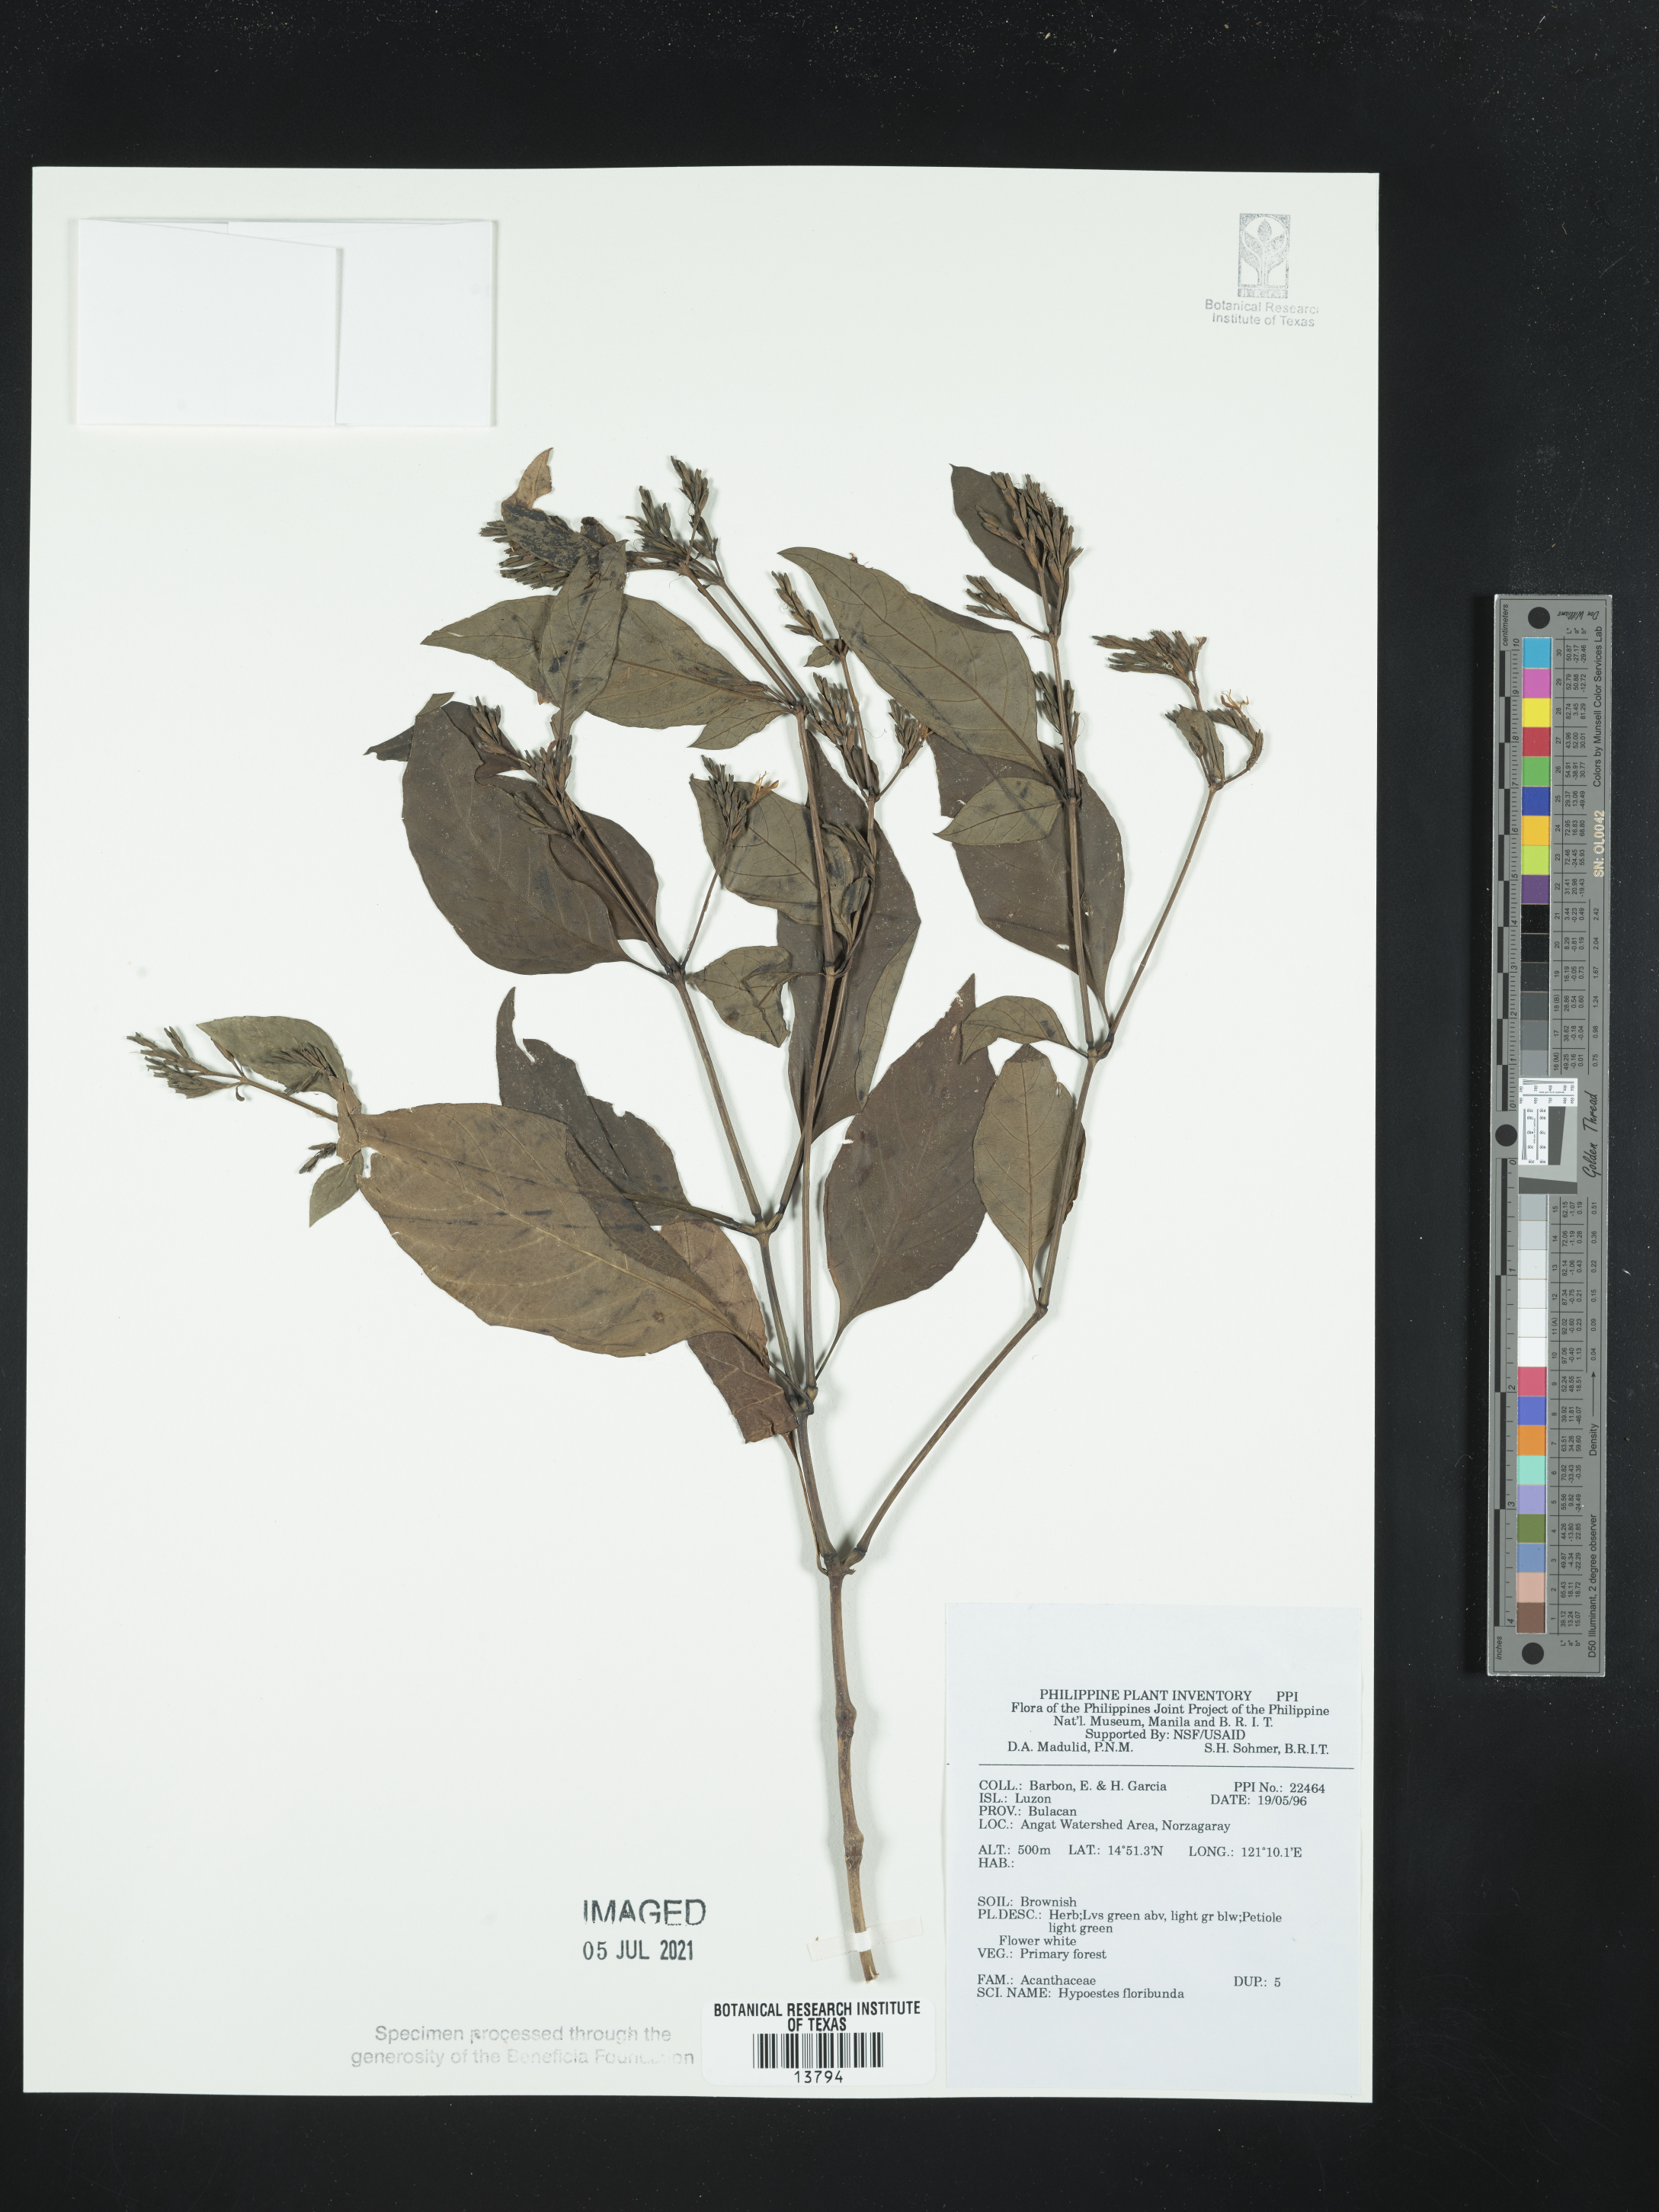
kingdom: Plantae
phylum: Tracheophyta
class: Magnoliopsida
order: Lamiales
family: Acanthaceae
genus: Hypoestes
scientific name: Hypoestes floribunda
